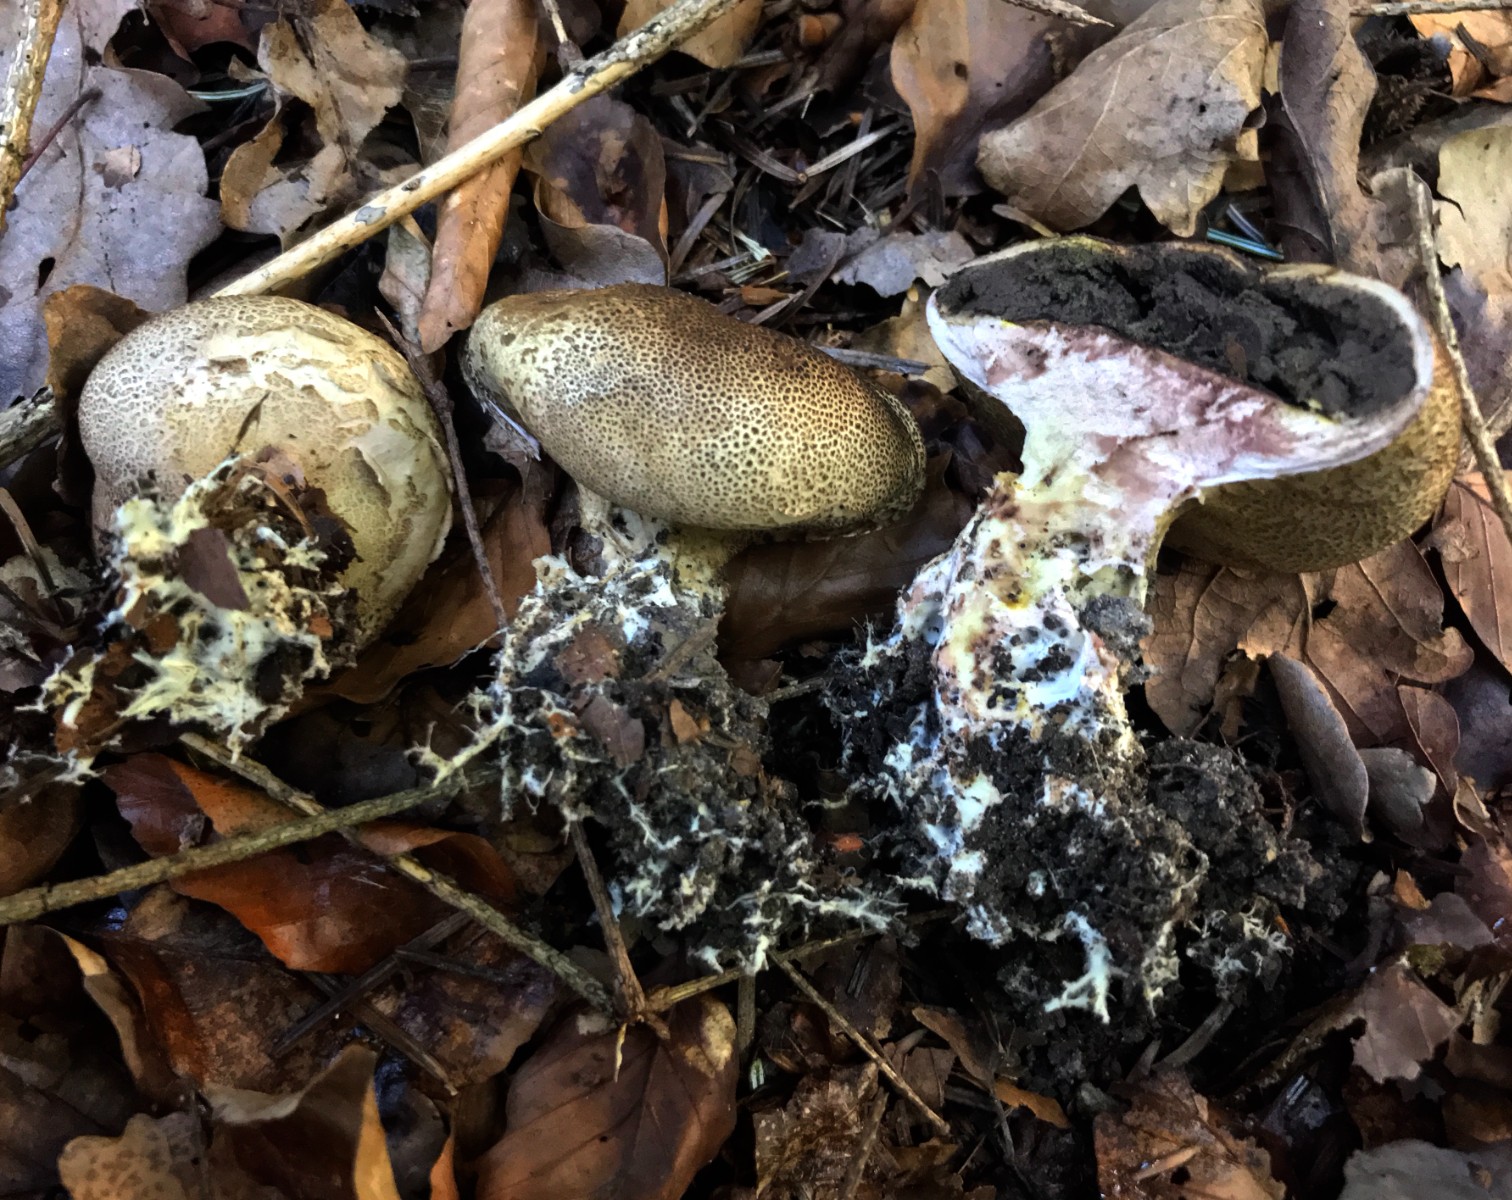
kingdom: Fungi
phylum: Basidiomycota
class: Agaricomycetes
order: Boletales
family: Sclerodermataceae
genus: Scleroderma
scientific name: Scleroderma verrucosum
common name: stilket bruskbold
